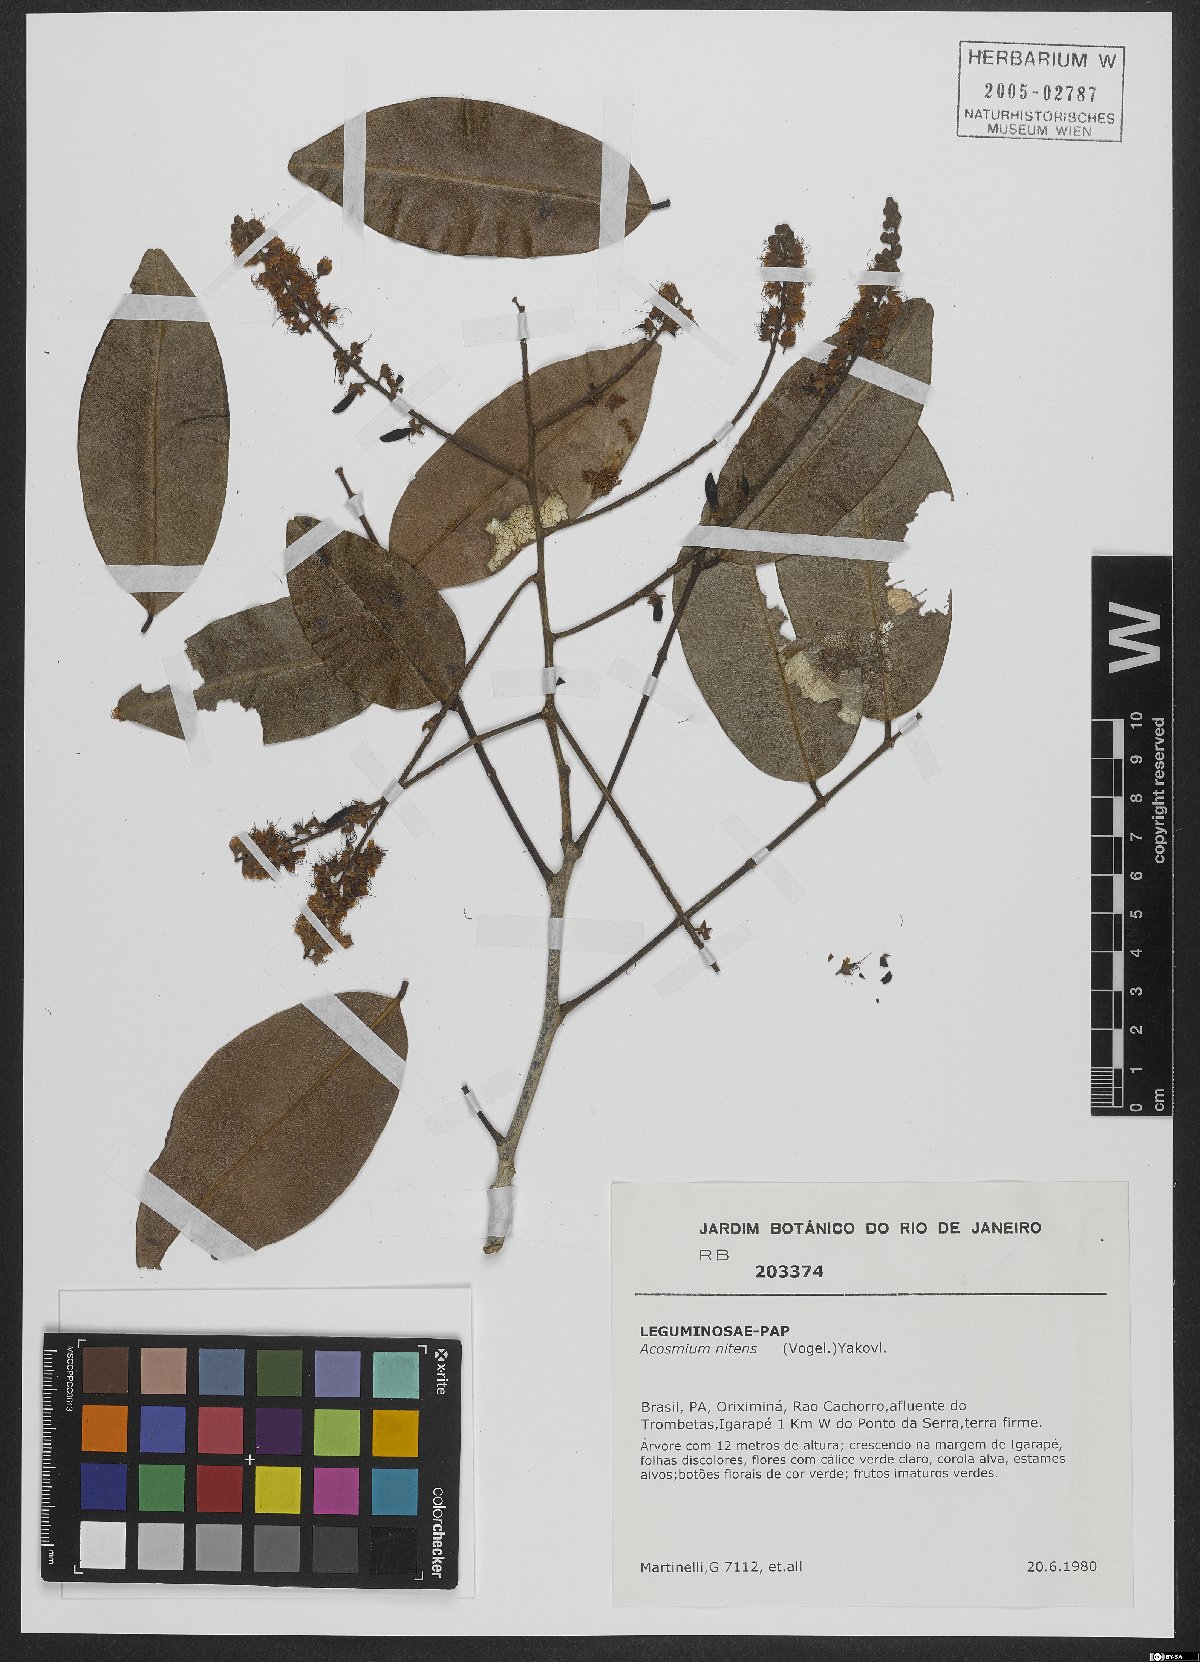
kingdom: Plantae
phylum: Tracheophyta
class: Magnoliopsida
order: Fabales
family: Fabaceae
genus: Leptolobium
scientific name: Leptolobium nitens
